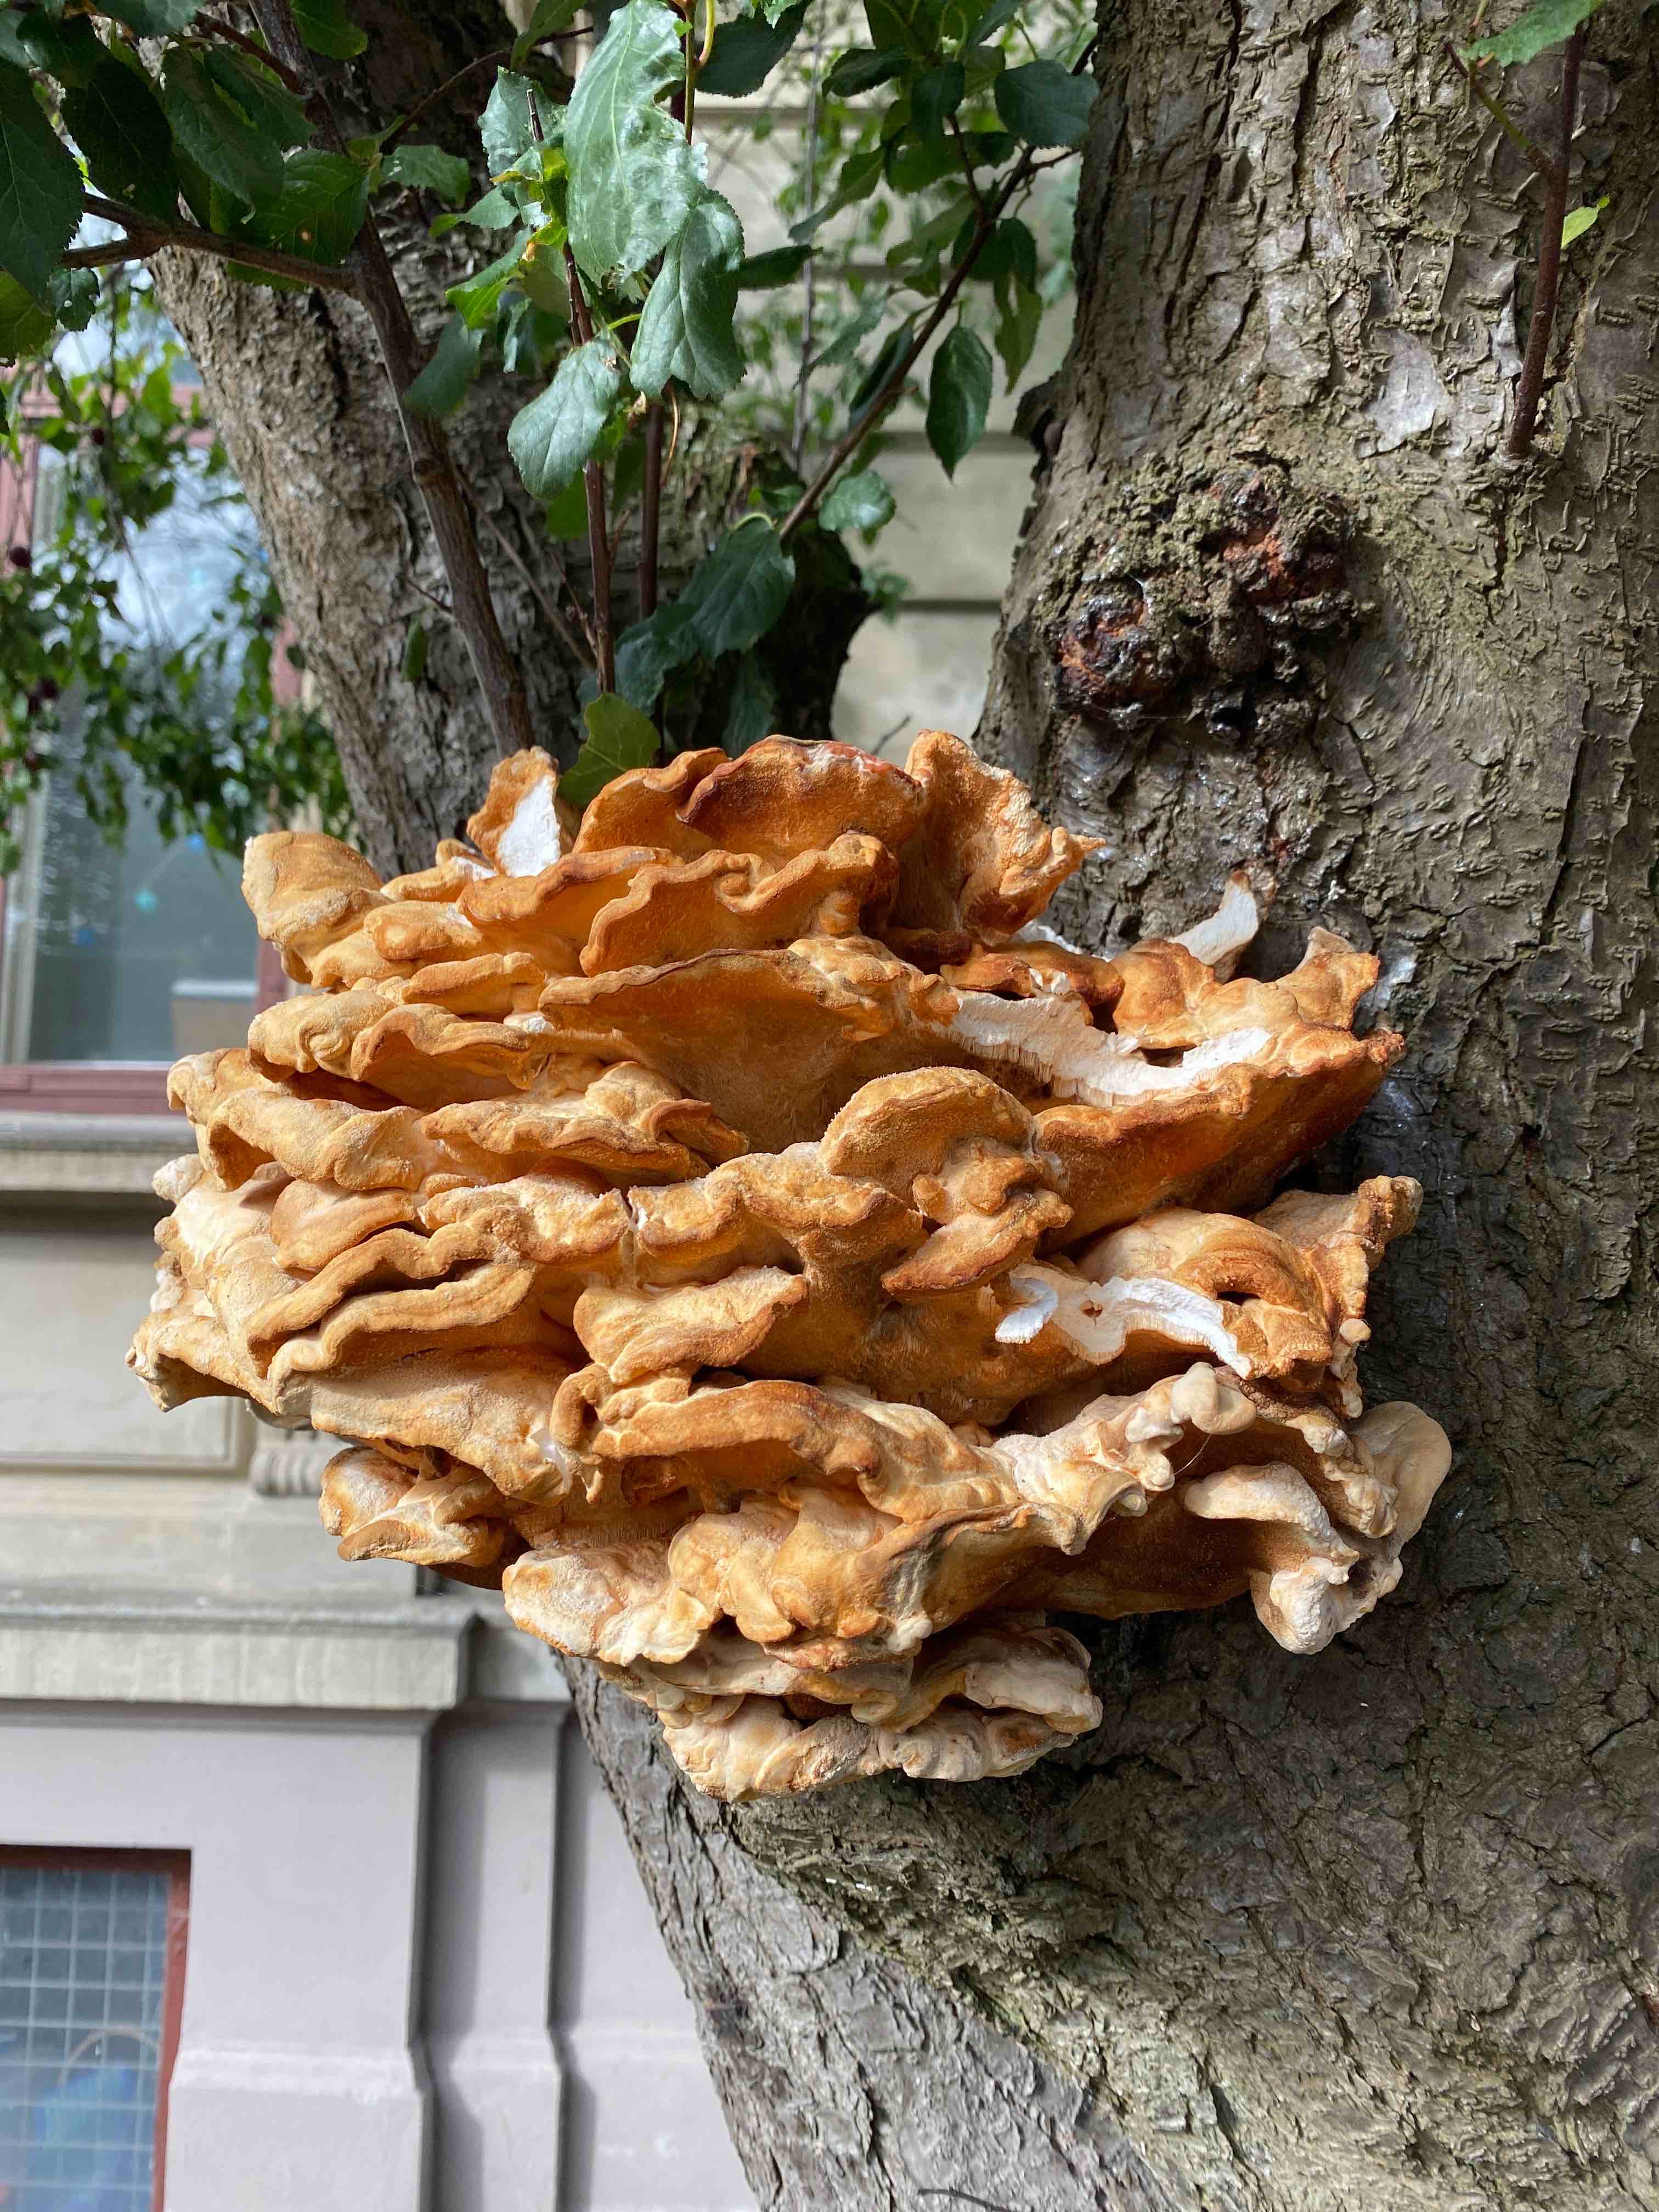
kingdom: Fungi
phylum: Basidiomycota
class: Agaricomycetes
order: Polyporales
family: Laetiporaceae
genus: Laetiporus
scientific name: Laetiporus sulphureus
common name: svovlporesvamp
